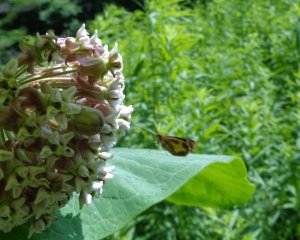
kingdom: Animalia
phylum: Arthropoda
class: Insecta
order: Lepidoptera
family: Hesperiidae
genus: Poanes
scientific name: Poanes massasoit
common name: Mulberry Wing
